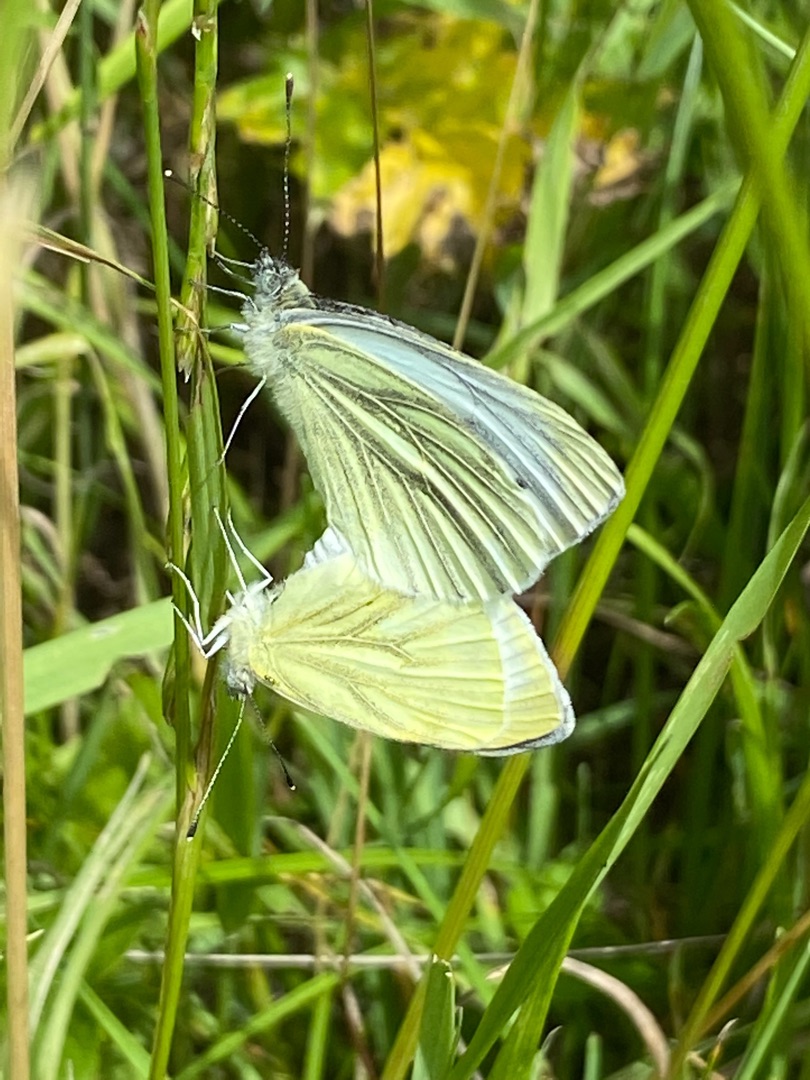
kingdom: Animalia
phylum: Arthropoda
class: Insecta
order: Lepidoptera
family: Pieridae
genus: Pieris
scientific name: Pieris napi
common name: Grønåret kålsommerfugl
